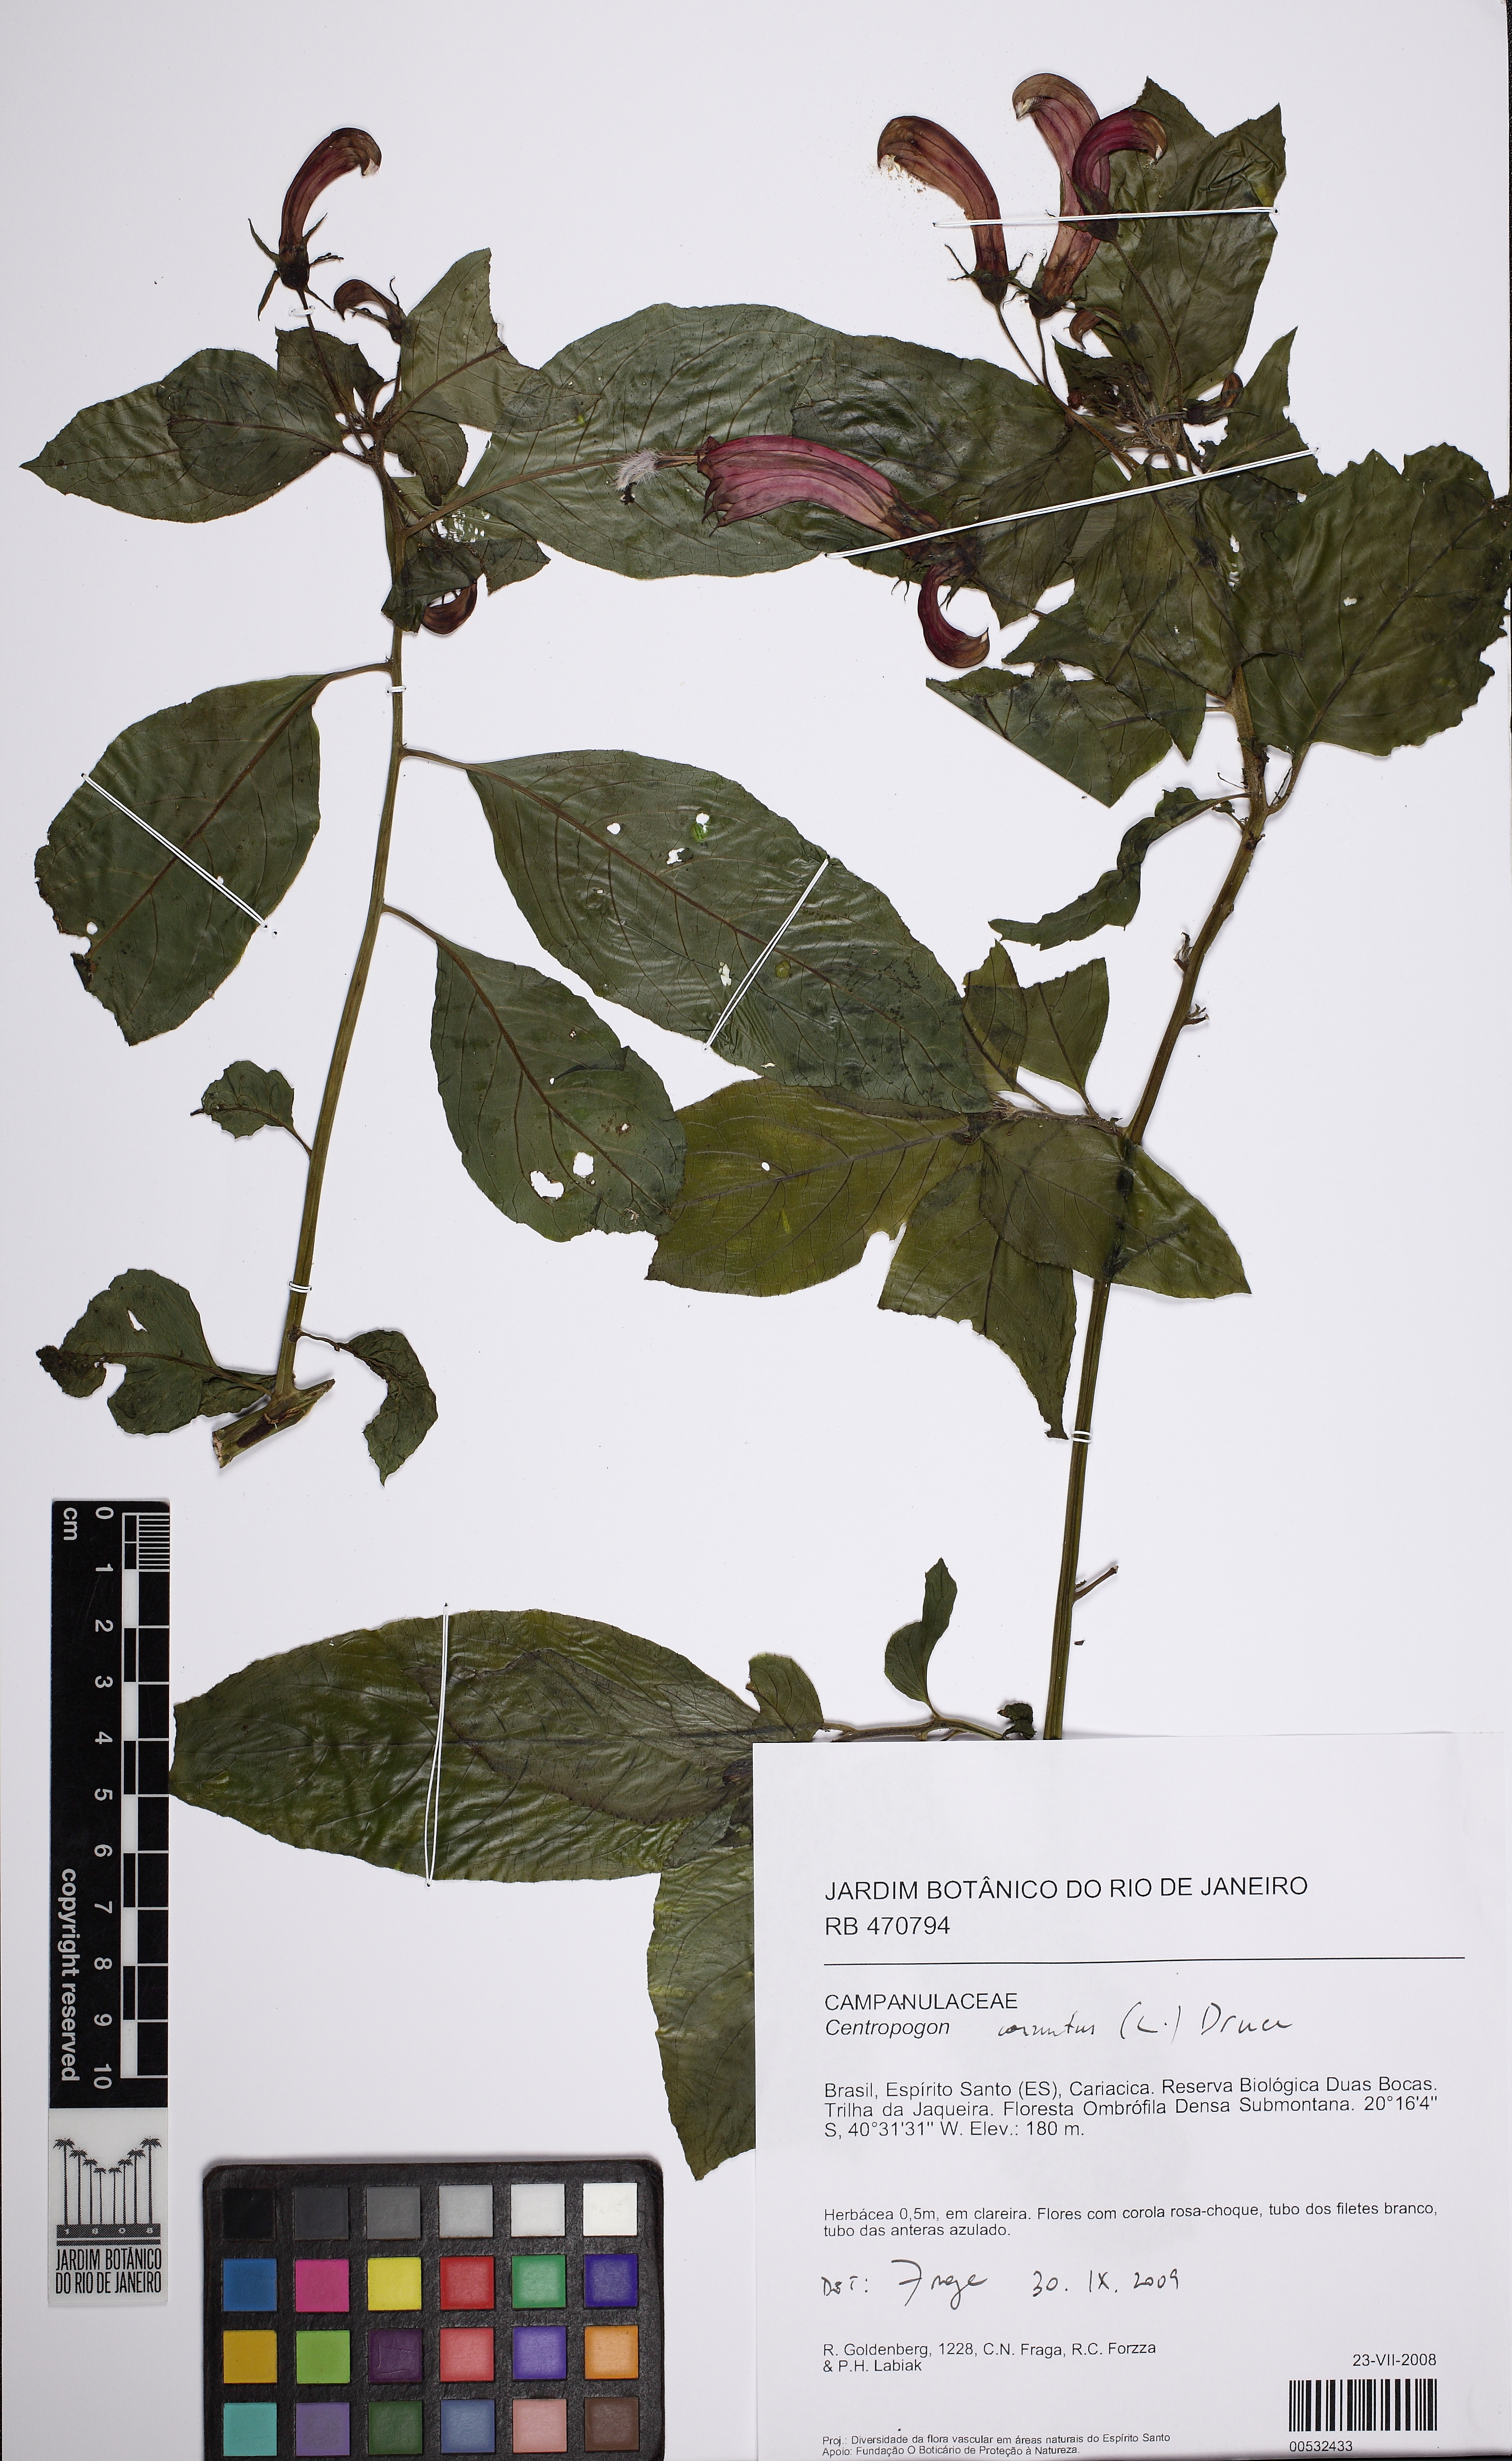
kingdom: Plantae
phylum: Tracheophyta
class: Magnoliopsida
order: Asterales
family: Campanulaceae
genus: Centropogon
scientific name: Centropogon cornutus
